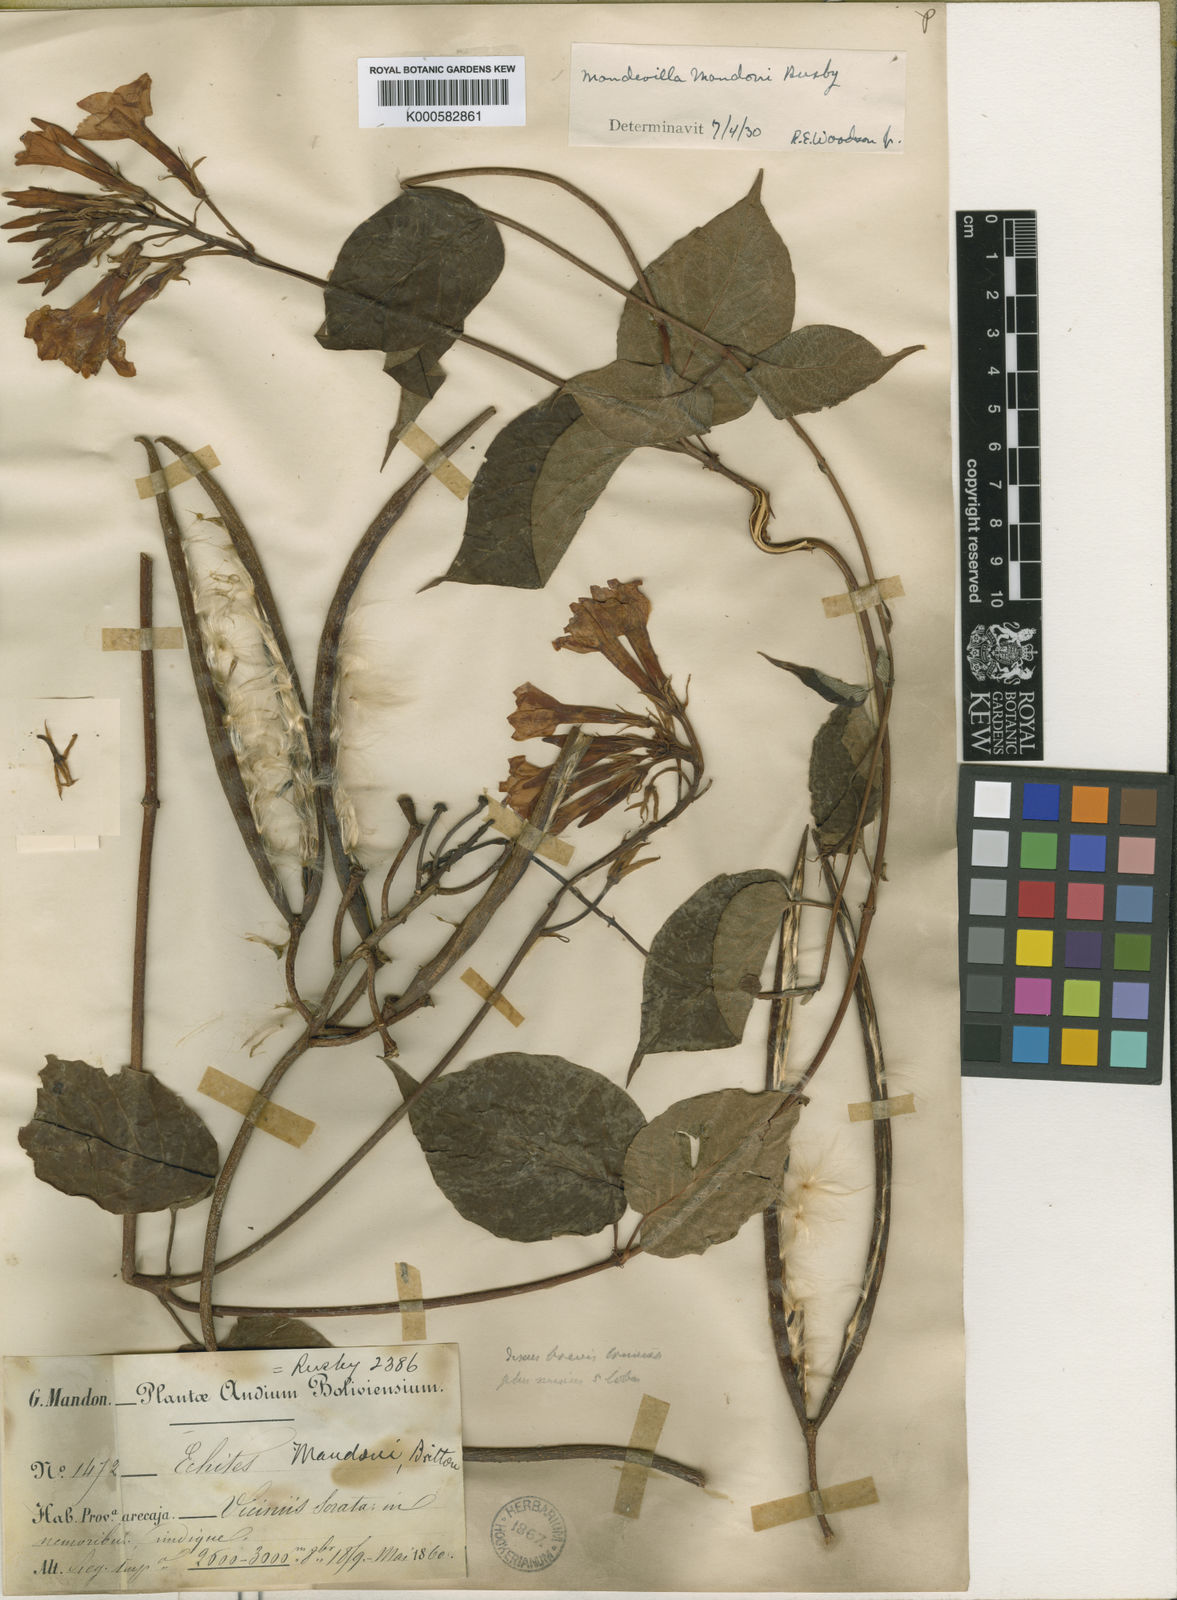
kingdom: Plantae
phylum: Tracheophyta
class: Magnoliopsida
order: Gentianales
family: Apocynaceae
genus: Mandevilla
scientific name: Mandevilla
